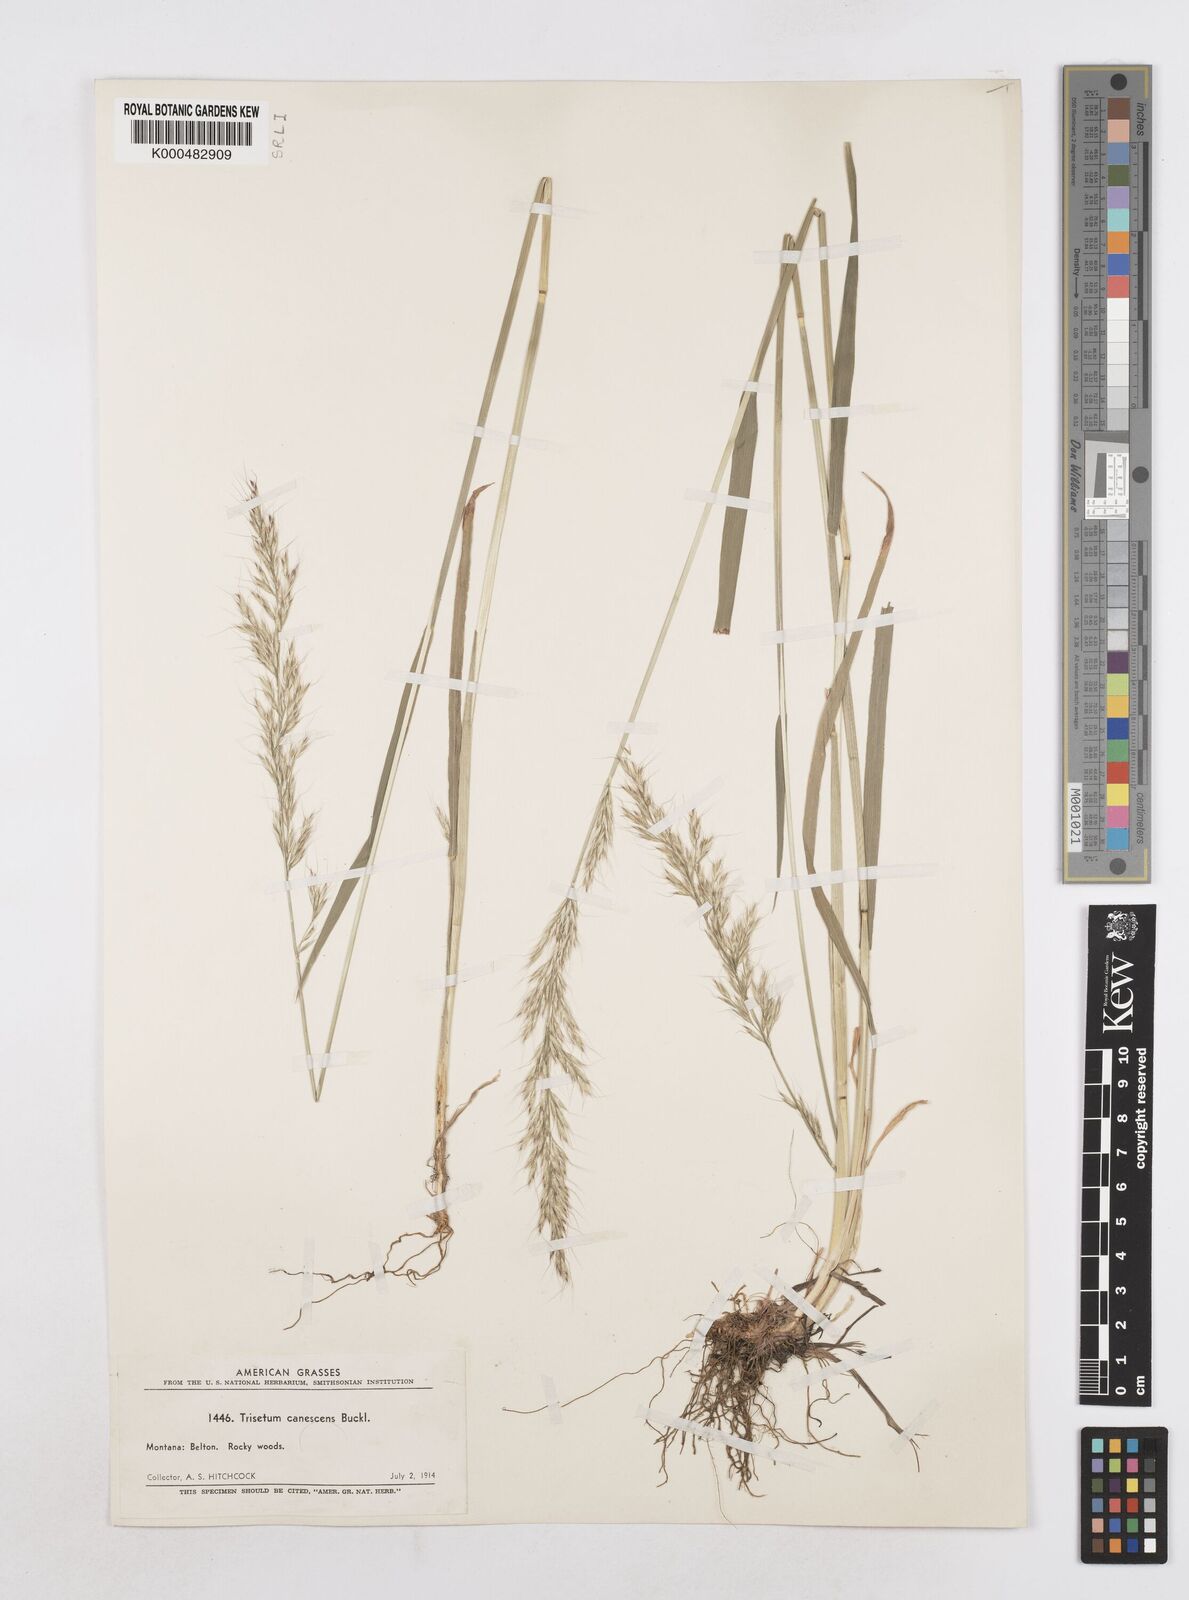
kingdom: Plantae
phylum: Tracheophyta
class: Liliopsida
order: Poales
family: Poaceae
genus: Graphephorum
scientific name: Graphephorum canescens
